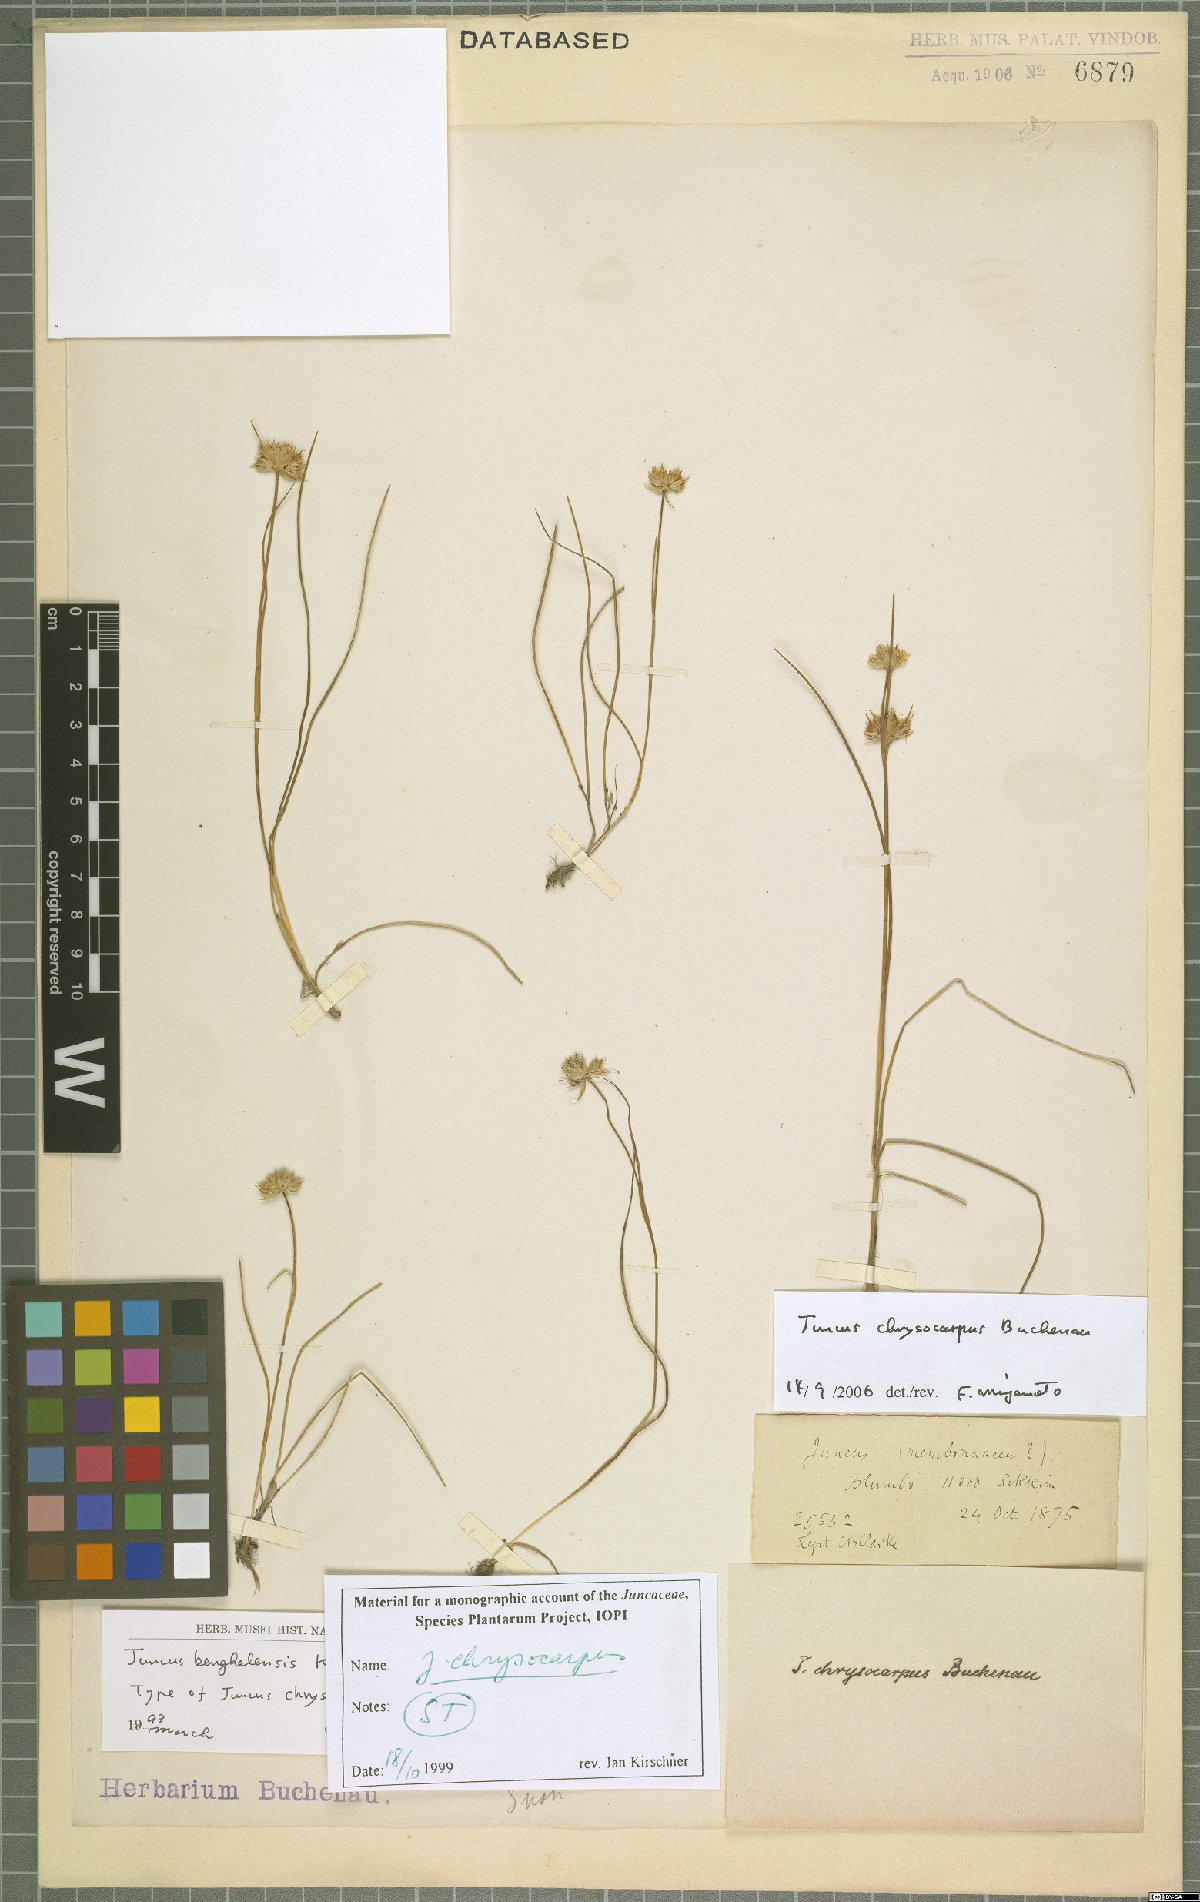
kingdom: Plantae
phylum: Tracheophyta
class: Liliopsida
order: Poales
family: Juncaceae
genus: Juncus
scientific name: Juncus chrysocarpus
